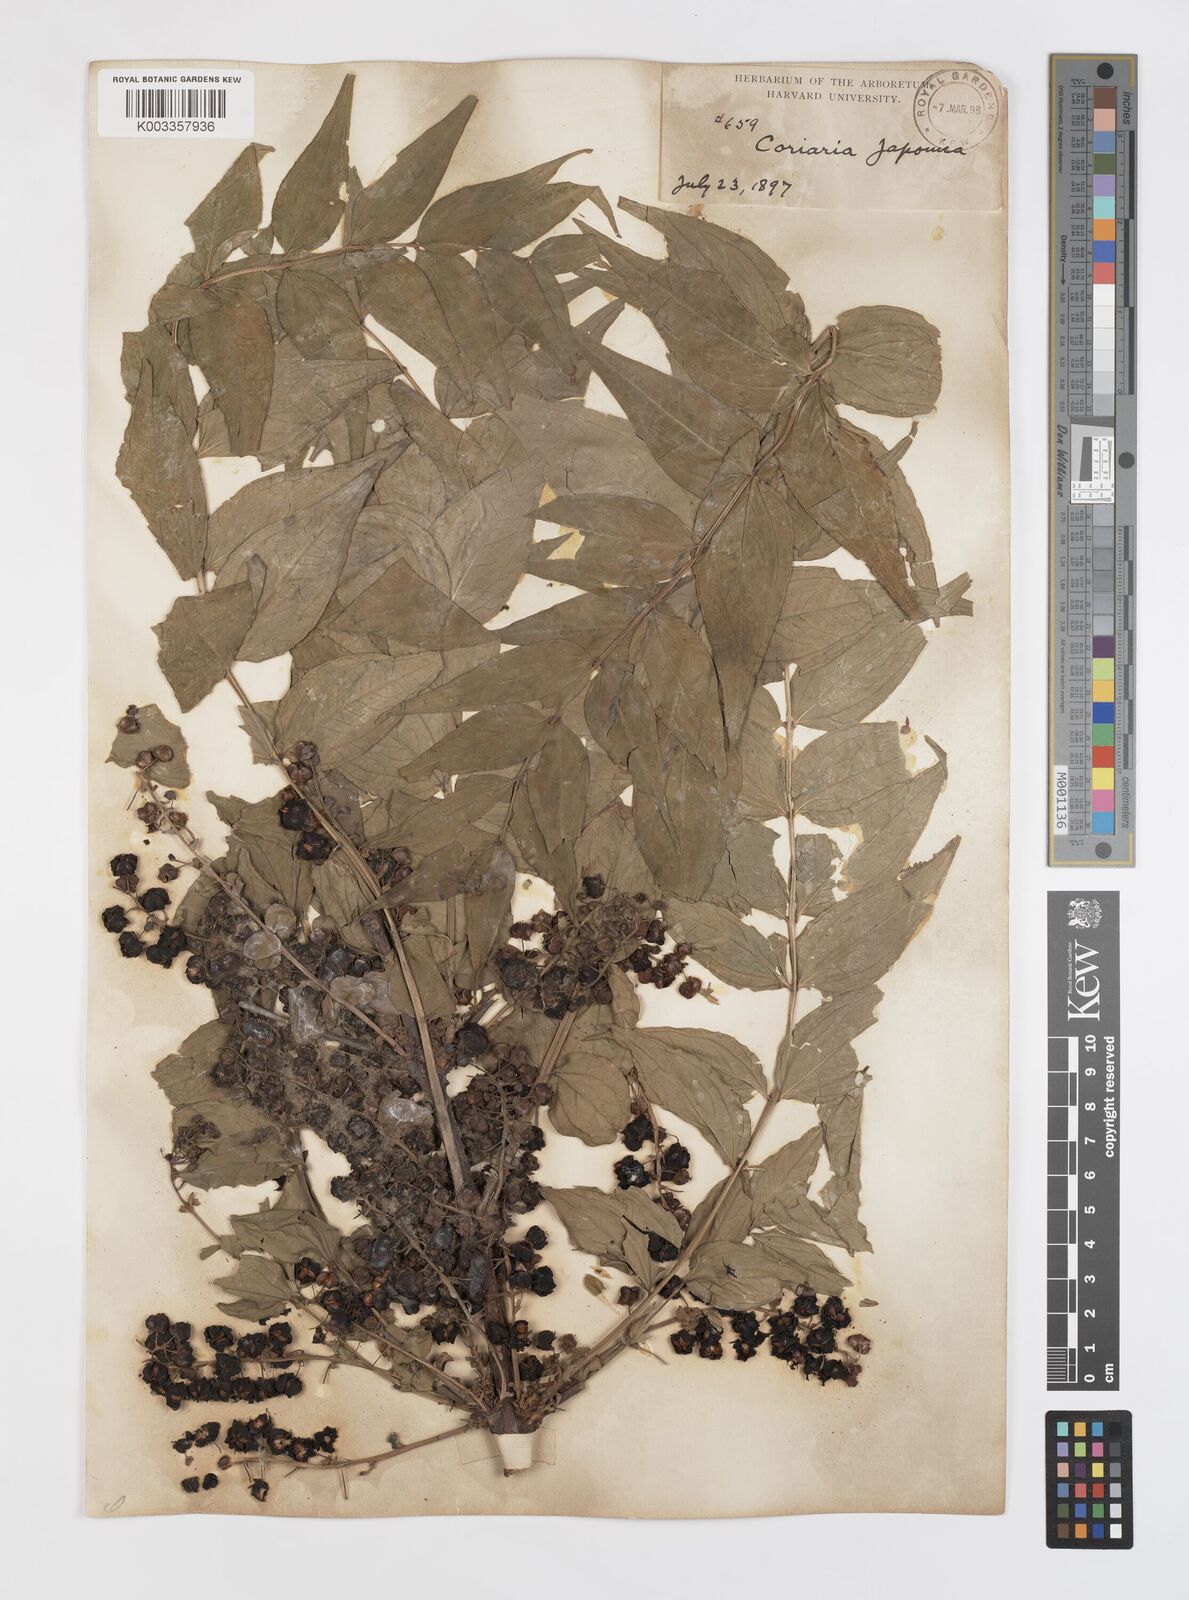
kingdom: Plantae
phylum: Tracheophyta
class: Magnoliopsida
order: Cucurbitales
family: Coriariaceae
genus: Coriaria
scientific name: Coriaria japonica
